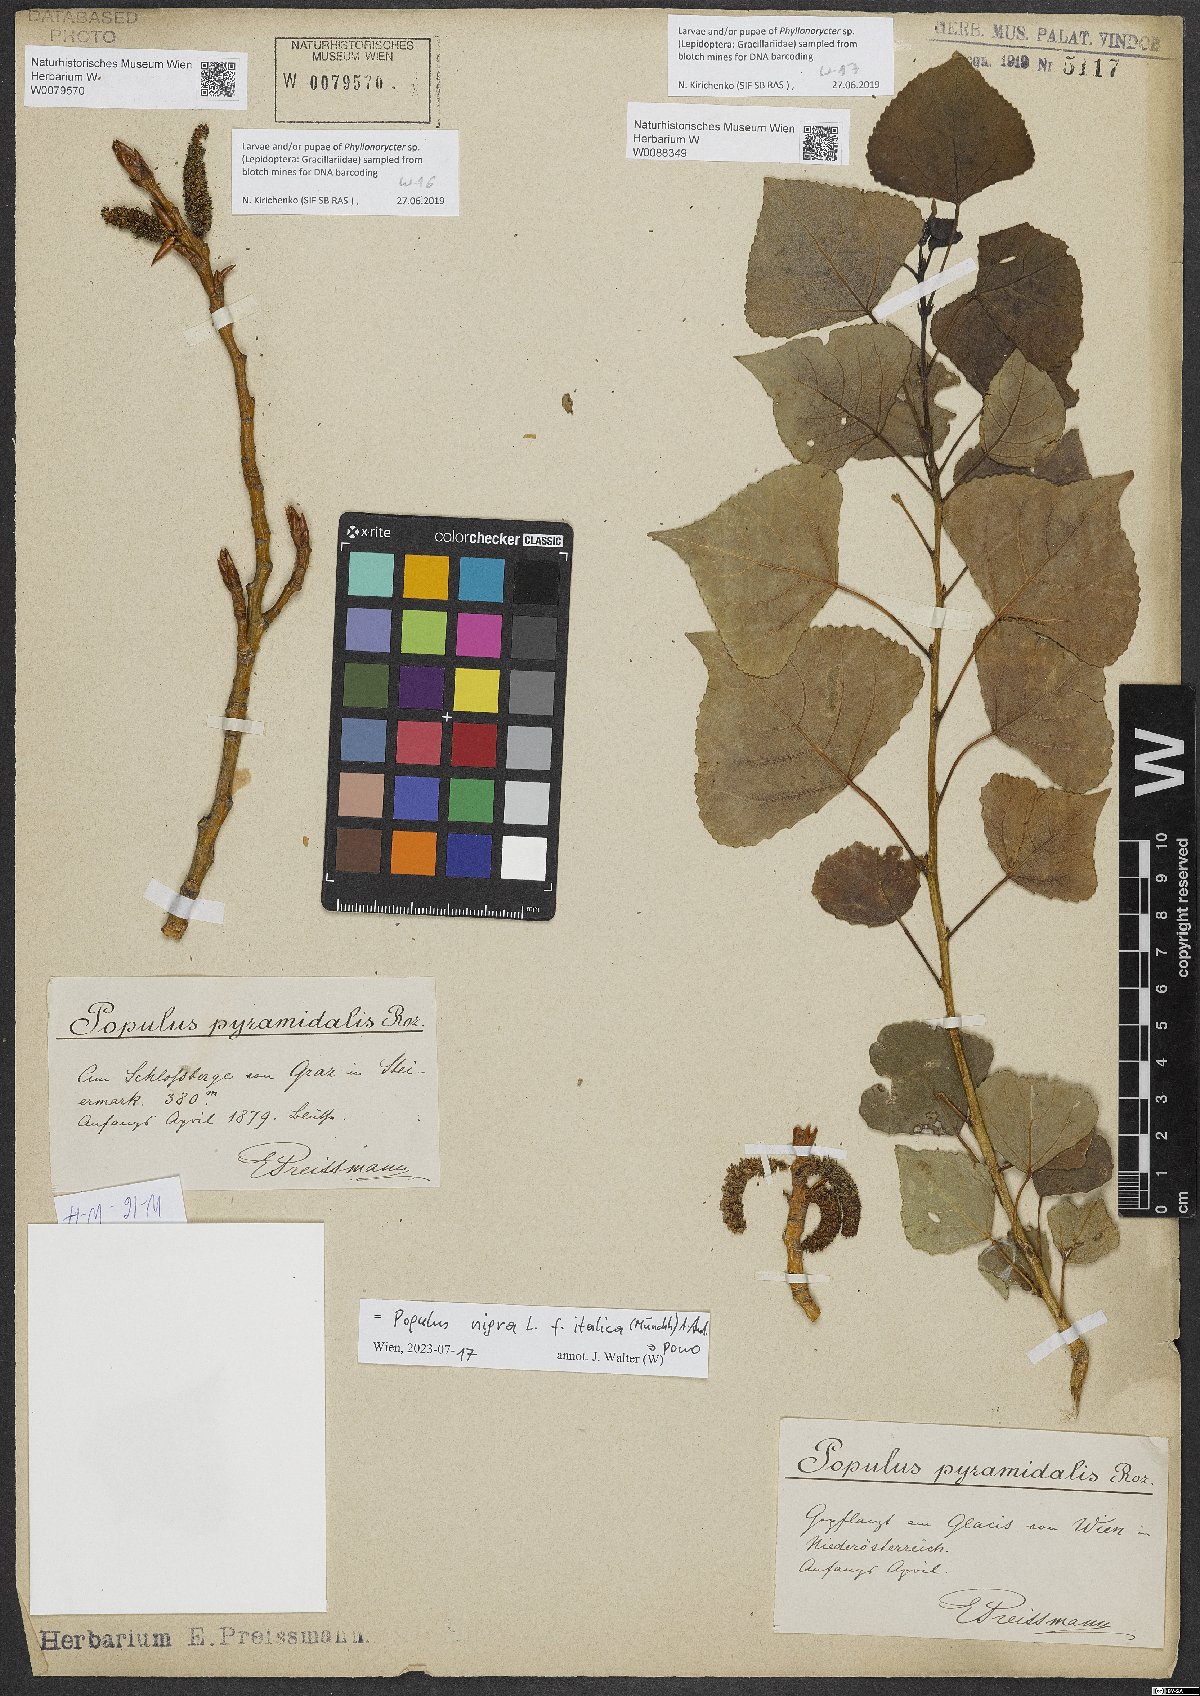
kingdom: Plantae
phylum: Tracheophyta
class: Magnoliopsida
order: Malpighiales
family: Salicaceae
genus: Populus
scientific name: Populus nigra
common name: Black poplar
